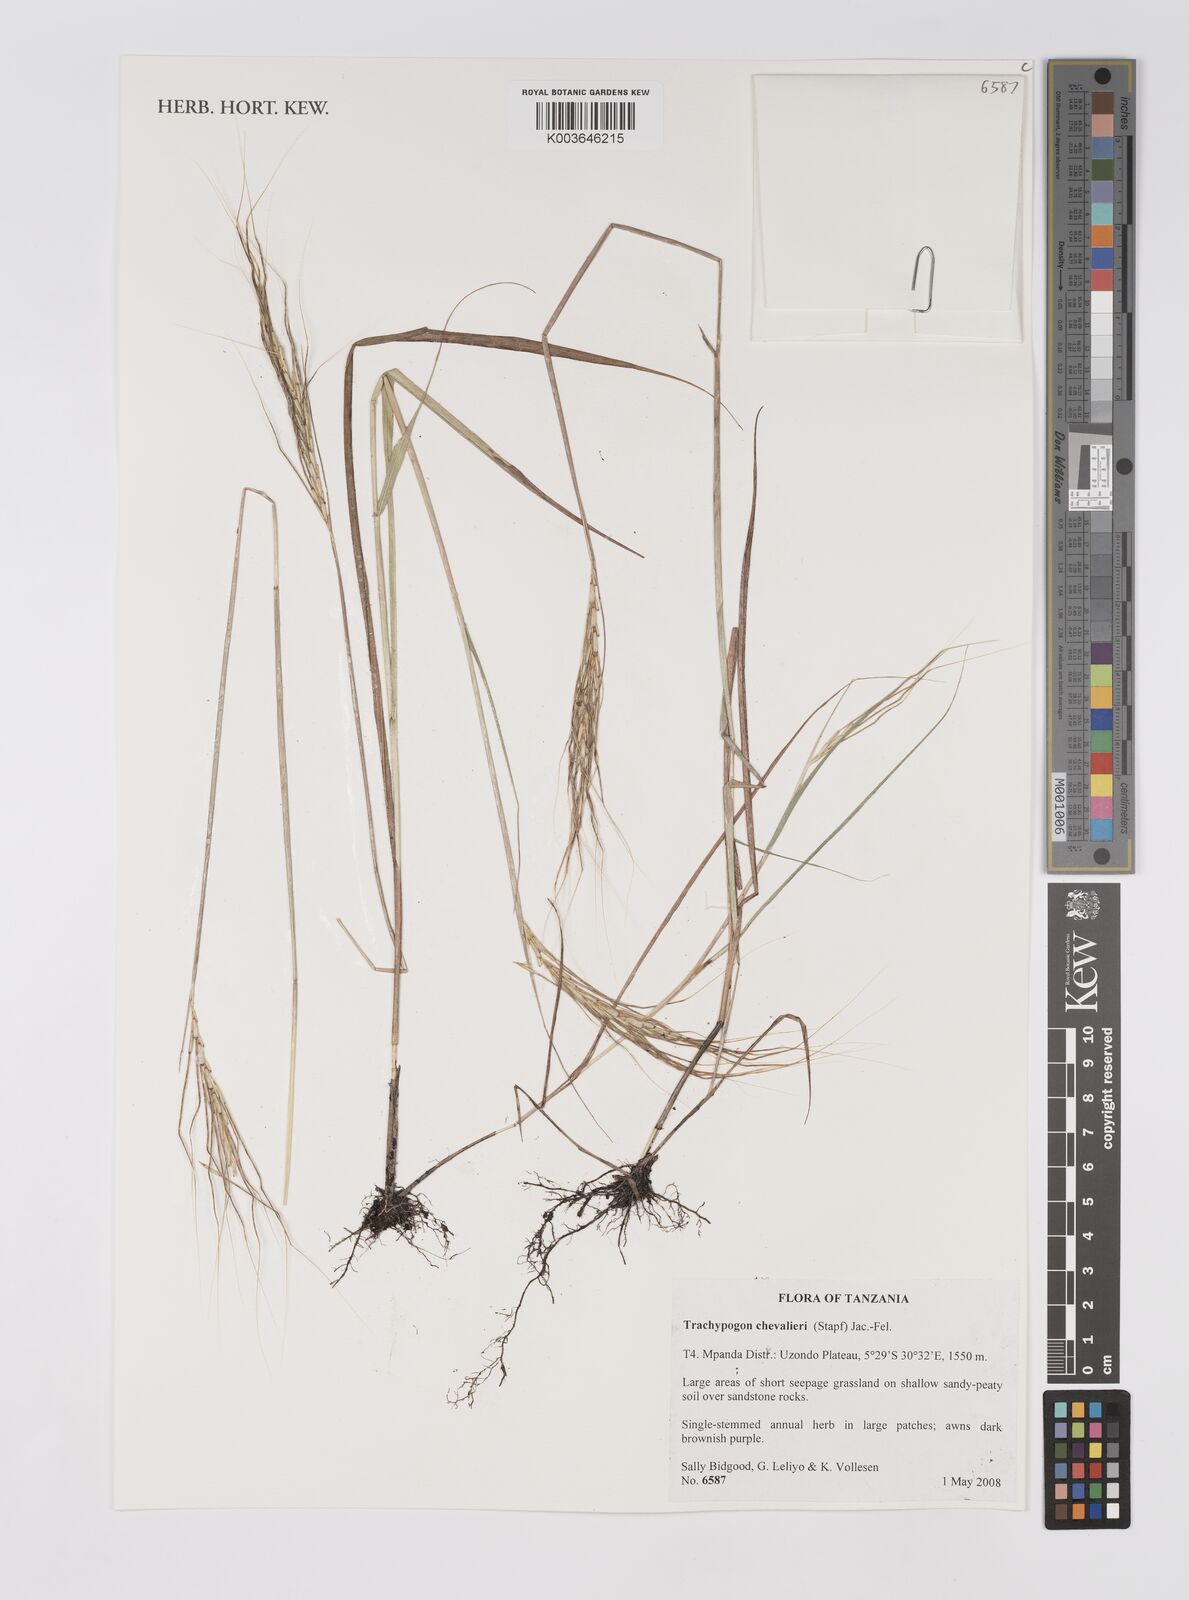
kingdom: Plantae
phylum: Tracheophyta
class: Liliopsida
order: Poales
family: Poaceae
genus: Trachypogon
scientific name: Trachypogon chevalieri
